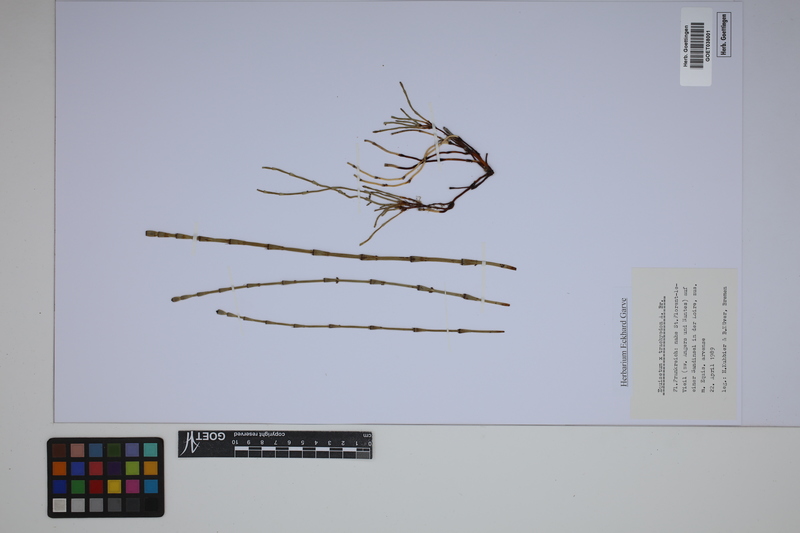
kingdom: Plantae
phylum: Tracheophyta
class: Polypodiopsida
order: Equisetales
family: Equisetaceae
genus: Equisetum
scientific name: Equisetum trachyodon
